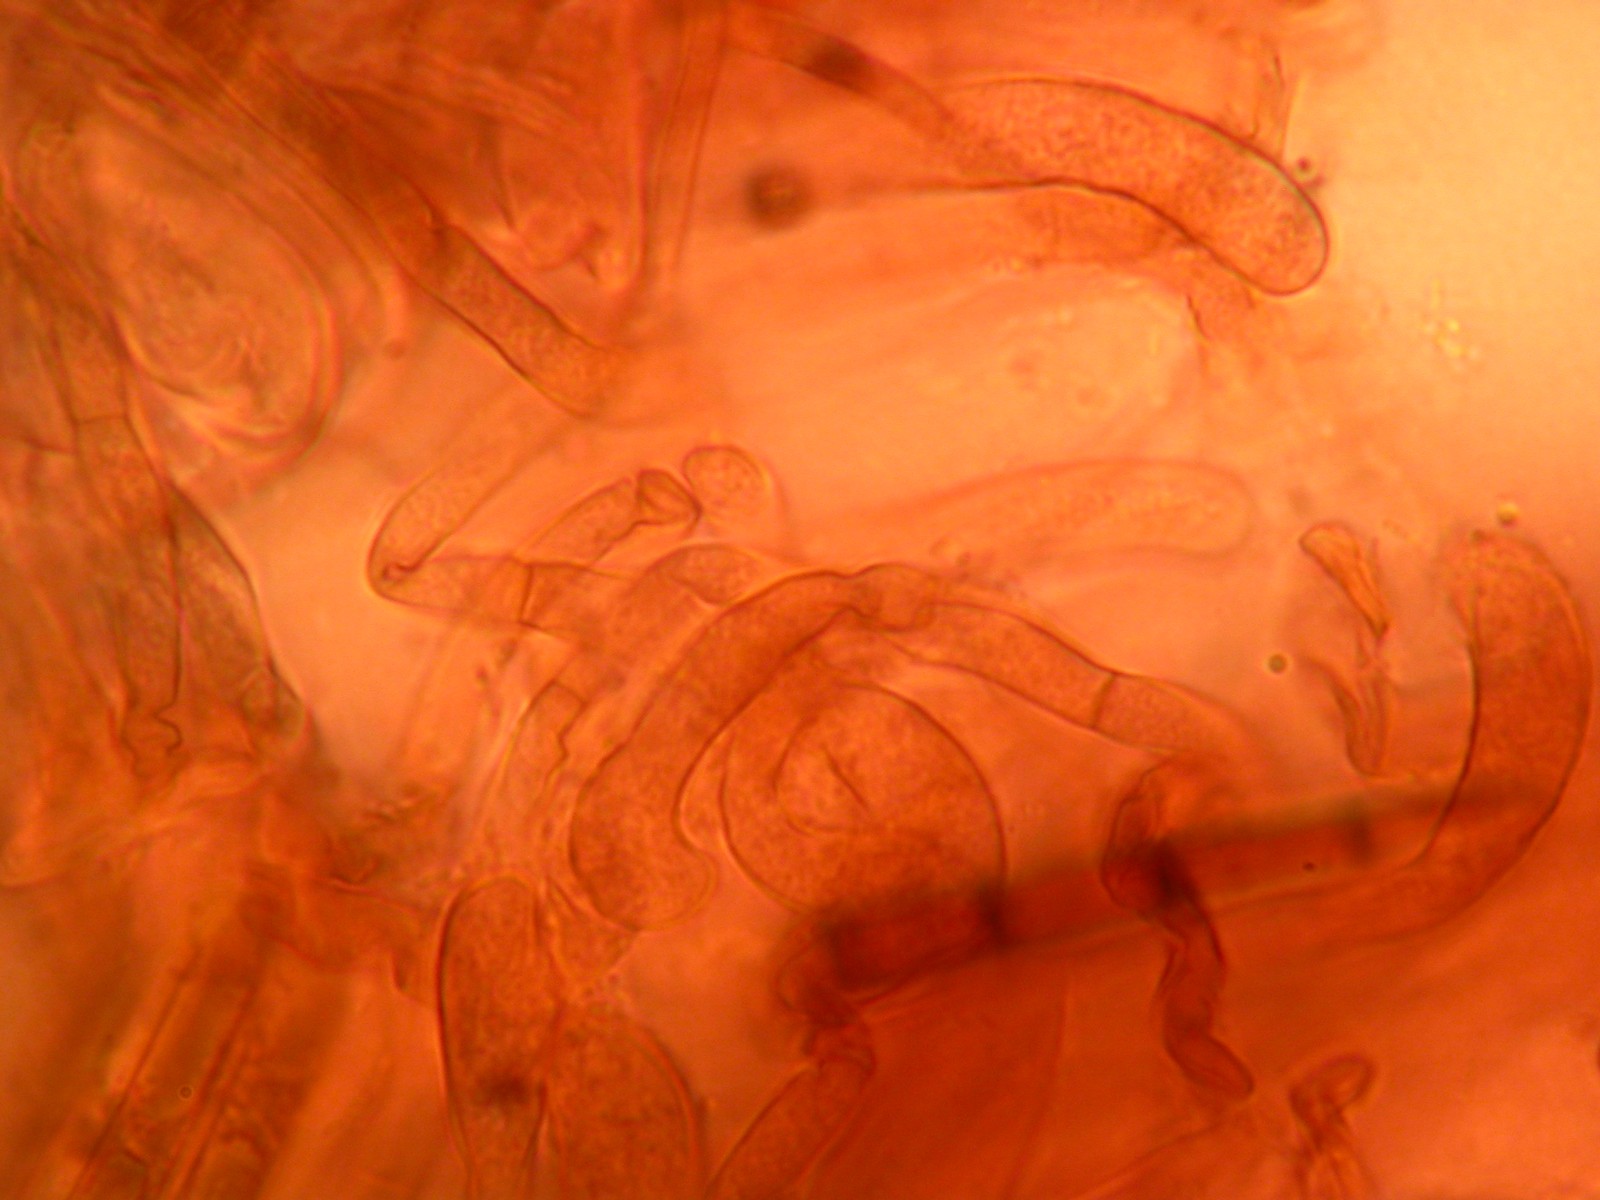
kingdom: Fungi
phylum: Ascomycota
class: Geoglossomycetes
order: Geoglossales
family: Geoglossaceae
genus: Geoglossum
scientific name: Geoglossum umbratile
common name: slank jordtunge
